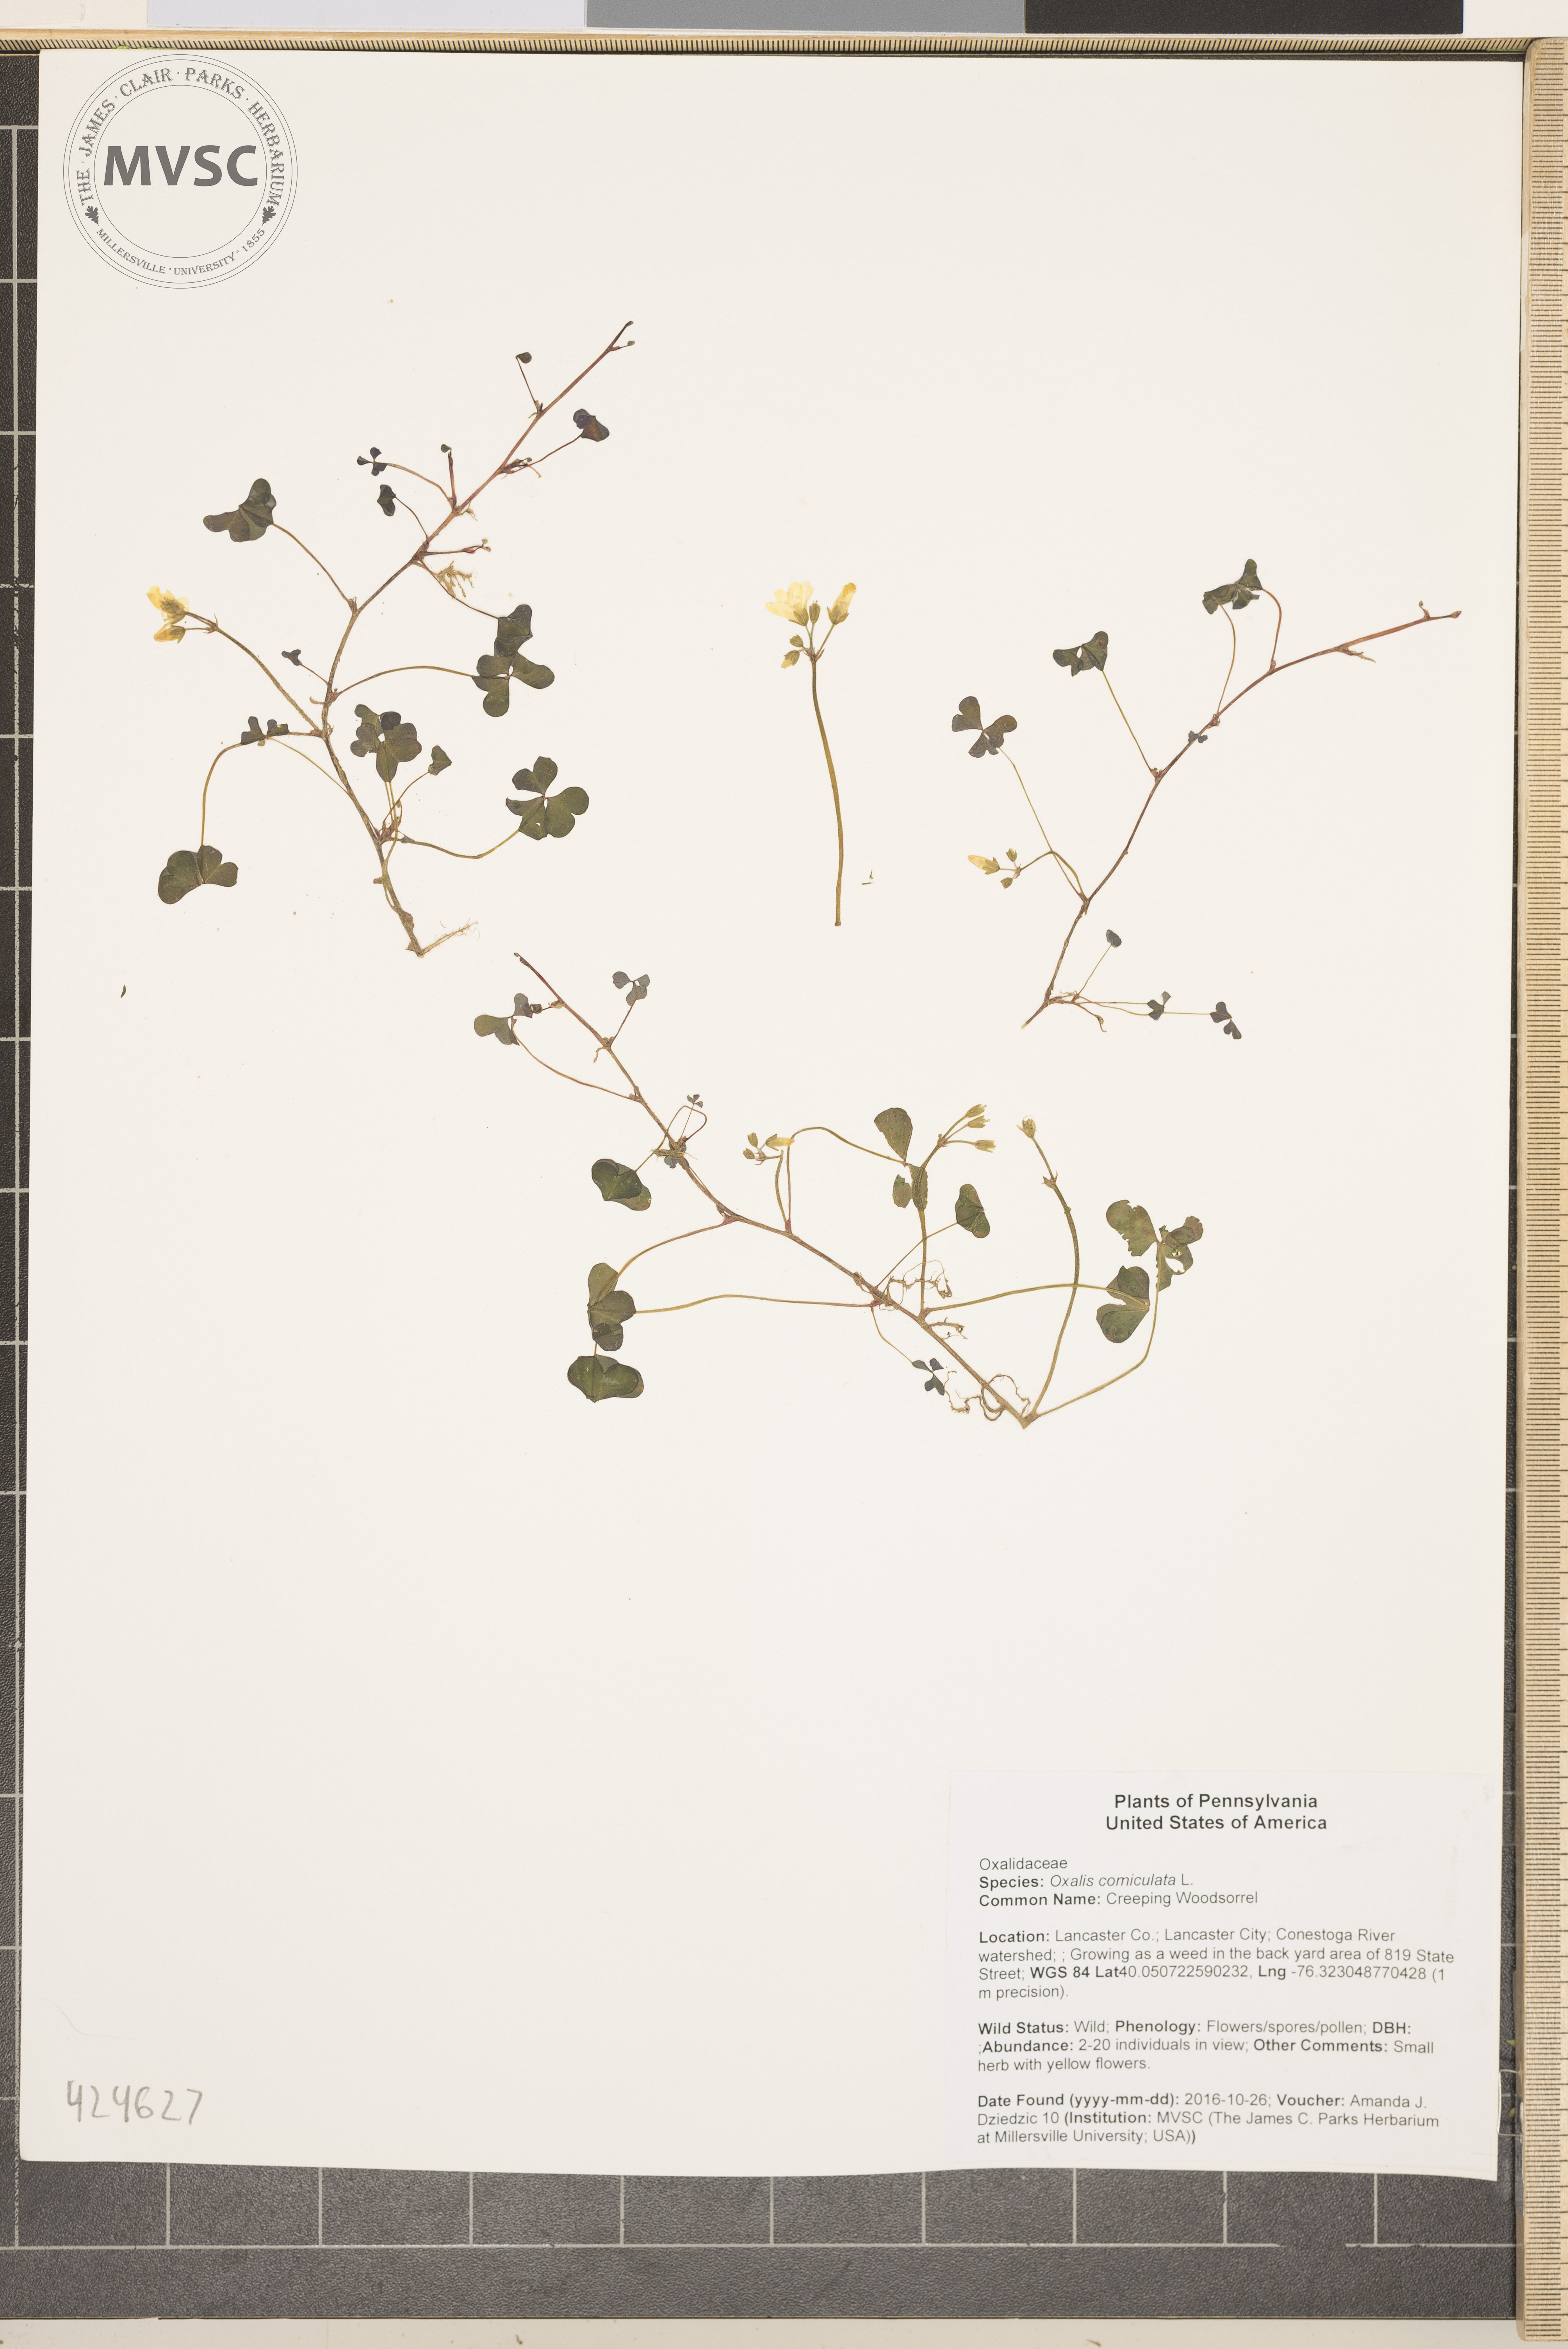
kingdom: Plantae
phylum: Tracheophyta
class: Magnoliopsida
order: Oxalidales
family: Oxalidaceae
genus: Oxalis
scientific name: Oxalis corniculata
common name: Creeping Woodsorrel
